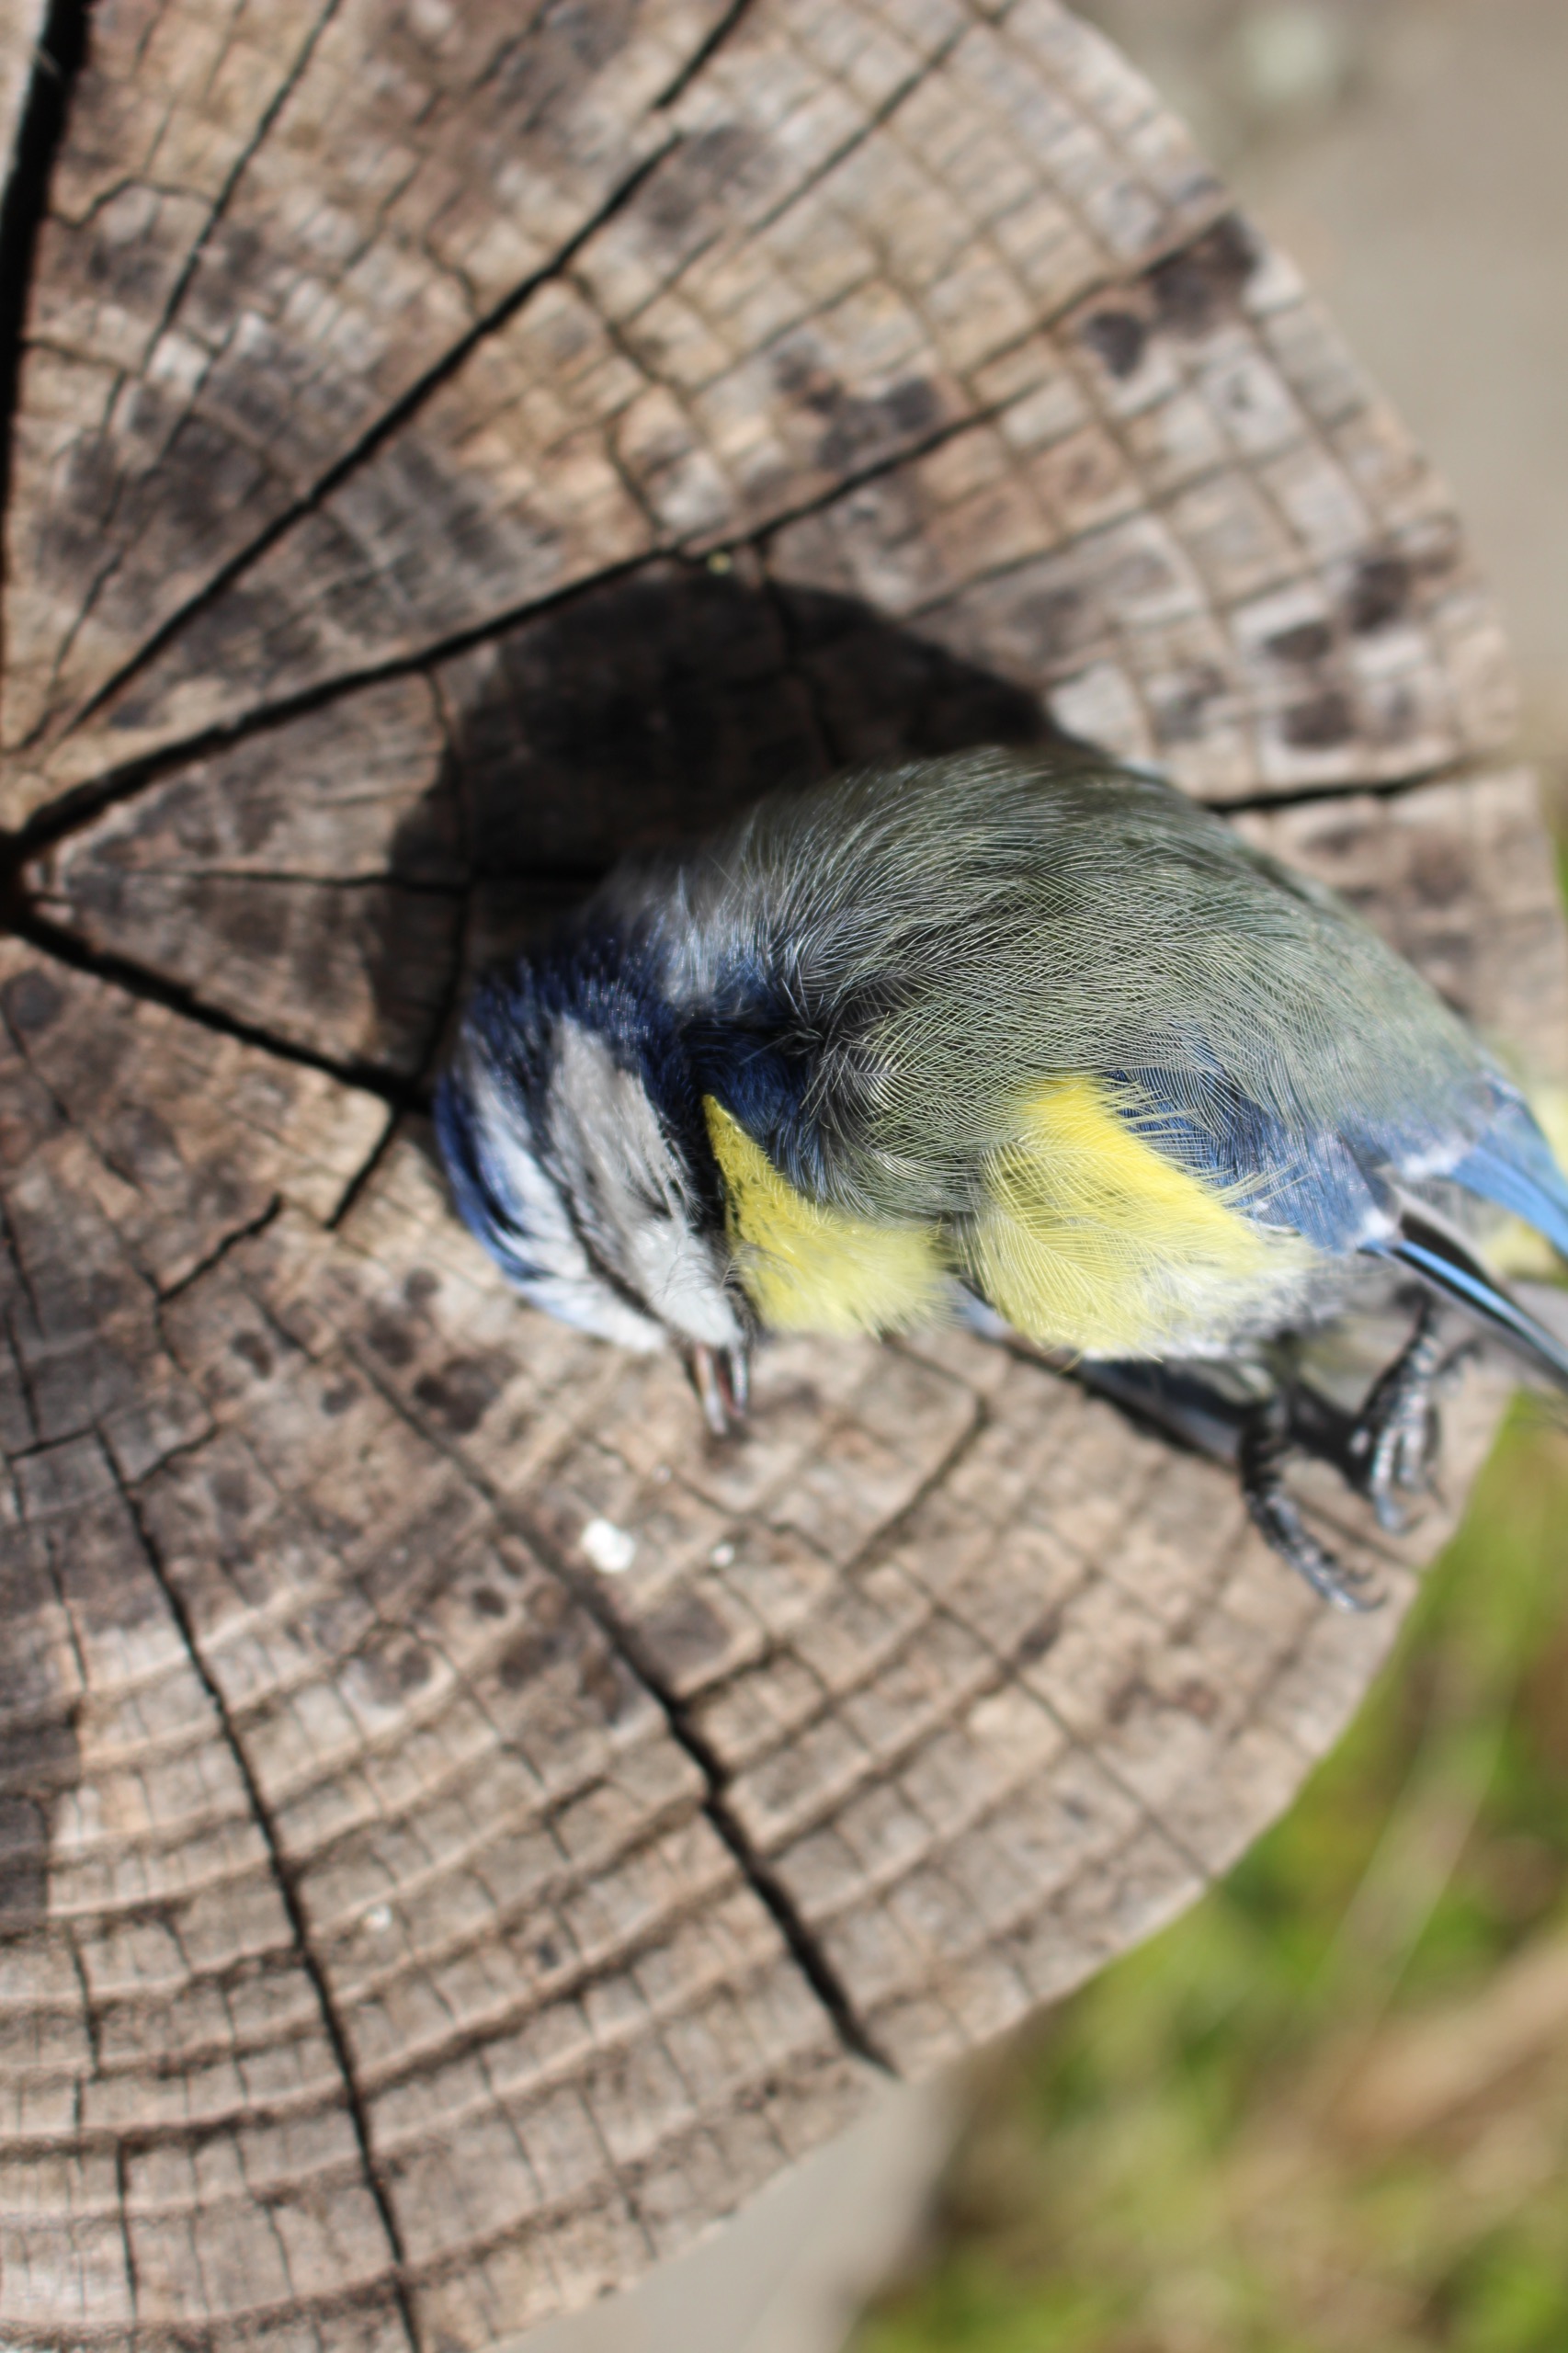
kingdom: Animalia
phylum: Chordata
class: Aves
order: Passeriformes
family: Paridae
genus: Cyanistes
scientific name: Cyanistes caeruleus
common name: Blåmejse
